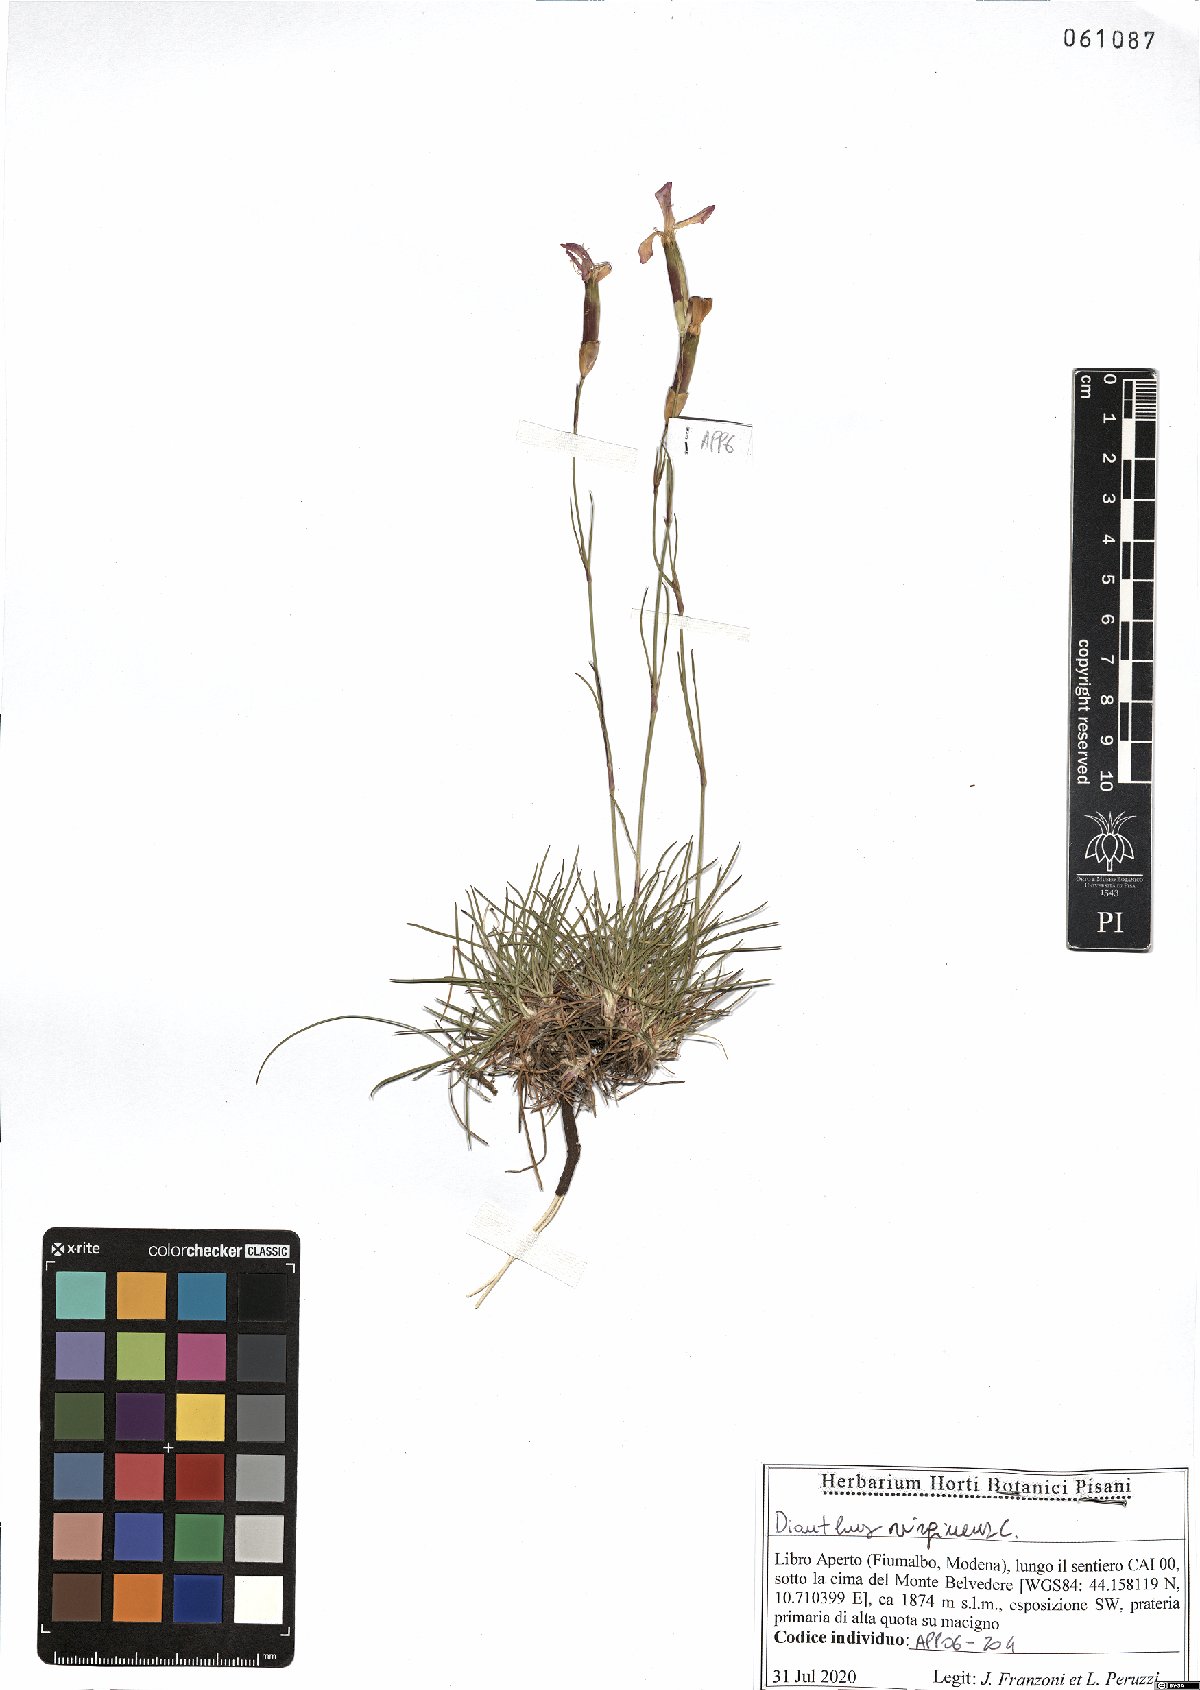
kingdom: Plantae
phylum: Tracheophyta
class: Magnoliopsida
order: Caryophyllales
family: Caryophyllaceae
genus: Dianthus
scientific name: Dianthus virgineus
